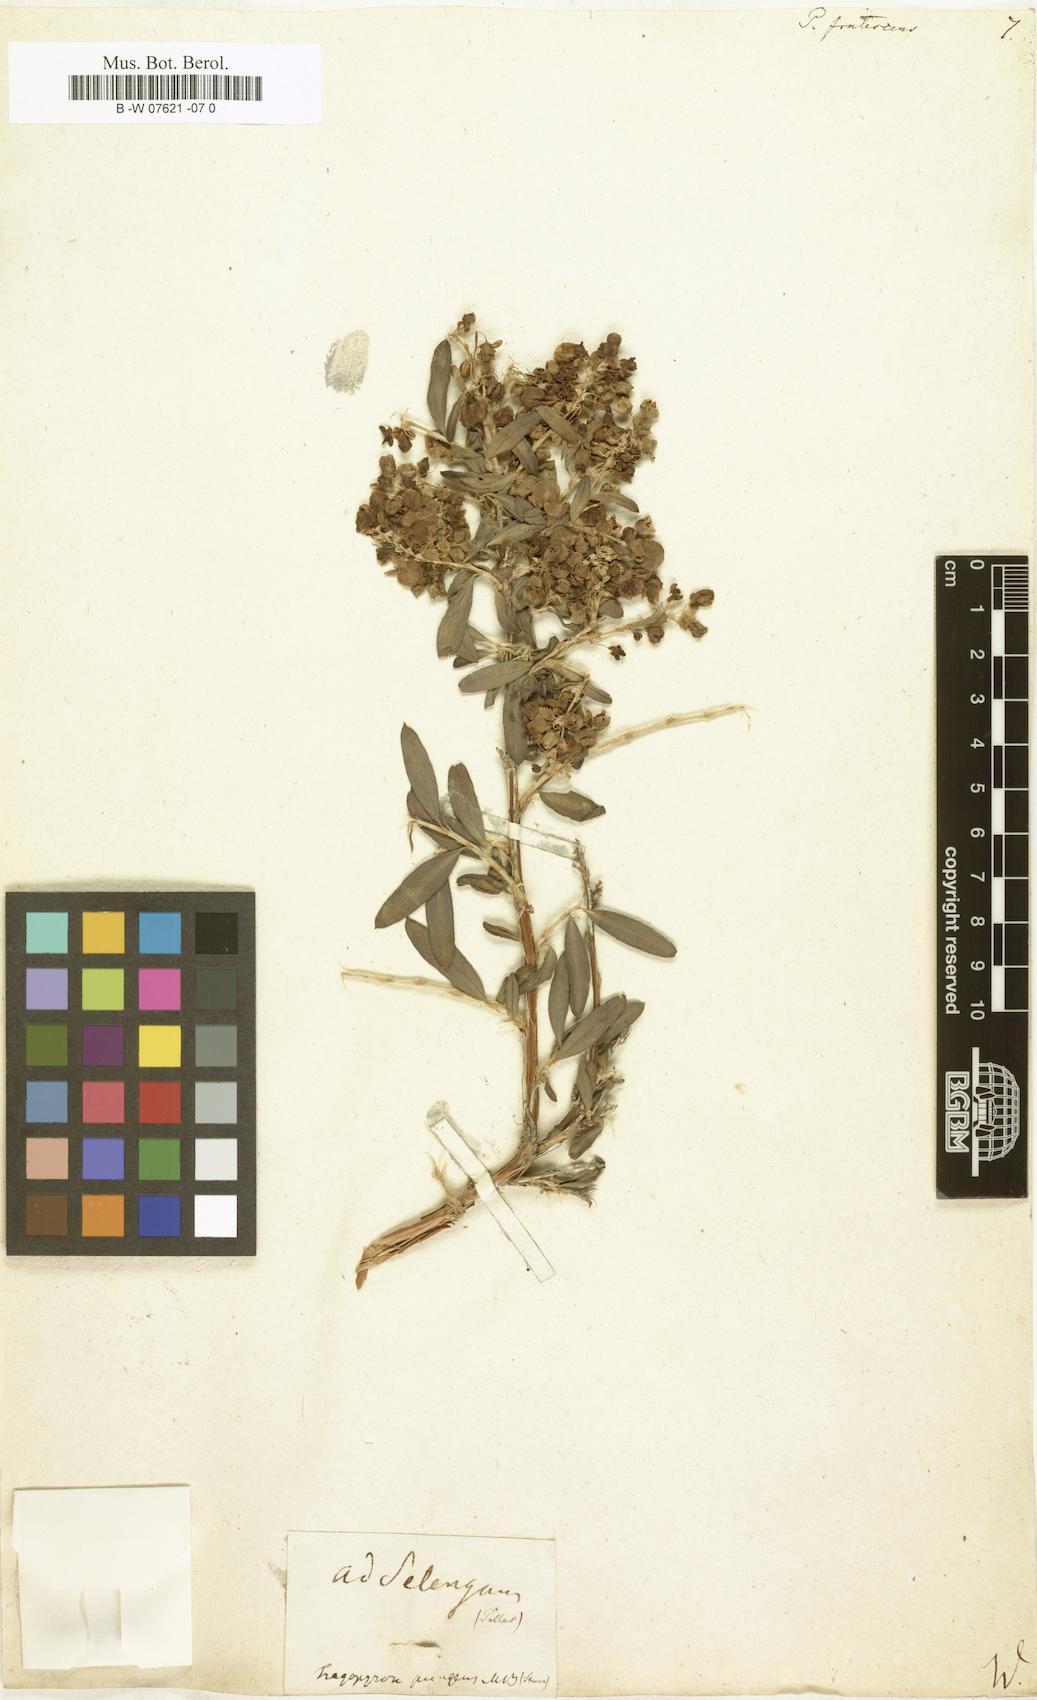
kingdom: Plantae
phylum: Tracheophyta
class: Magnoliopsida
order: Caryophyllales
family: Polygonaceae
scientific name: Polygonaceae
